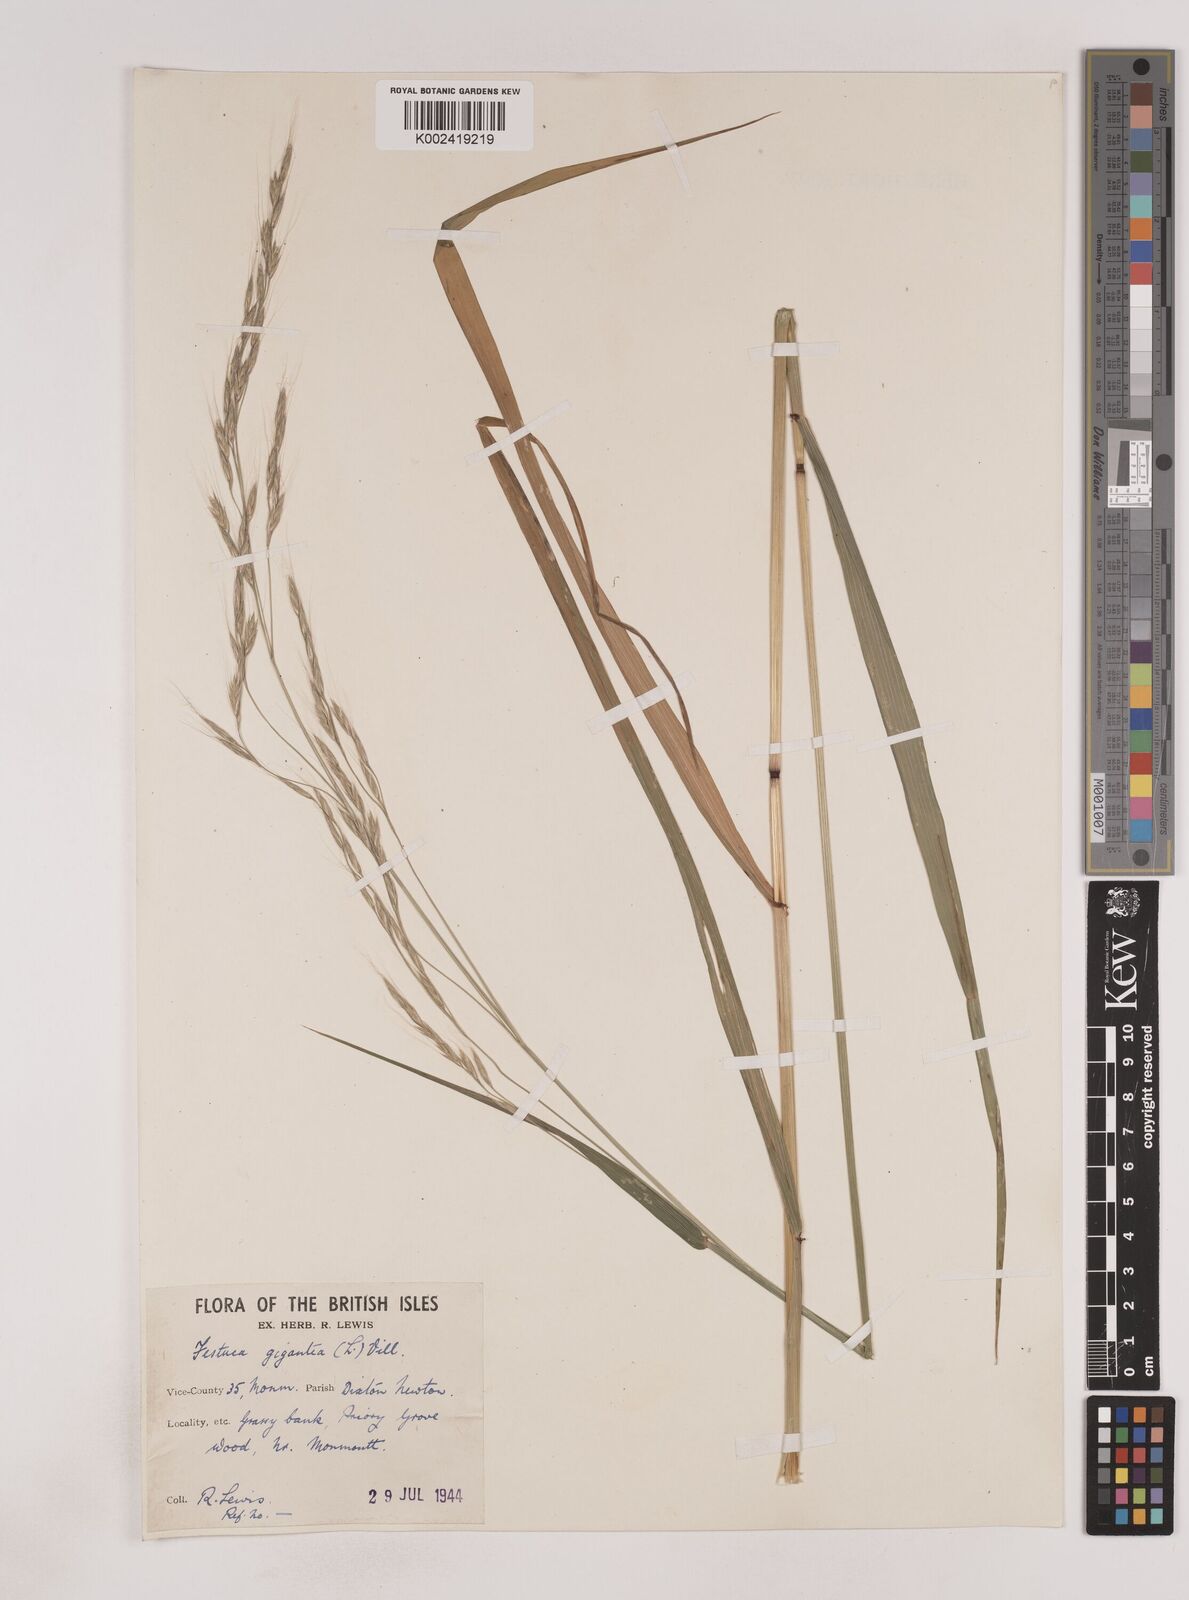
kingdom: Plantae
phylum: Tracheophyta
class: Liliopsida
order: Poales
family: Poaceae
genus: Lolium
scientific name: Lolium giganteum
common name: Giant fescue
